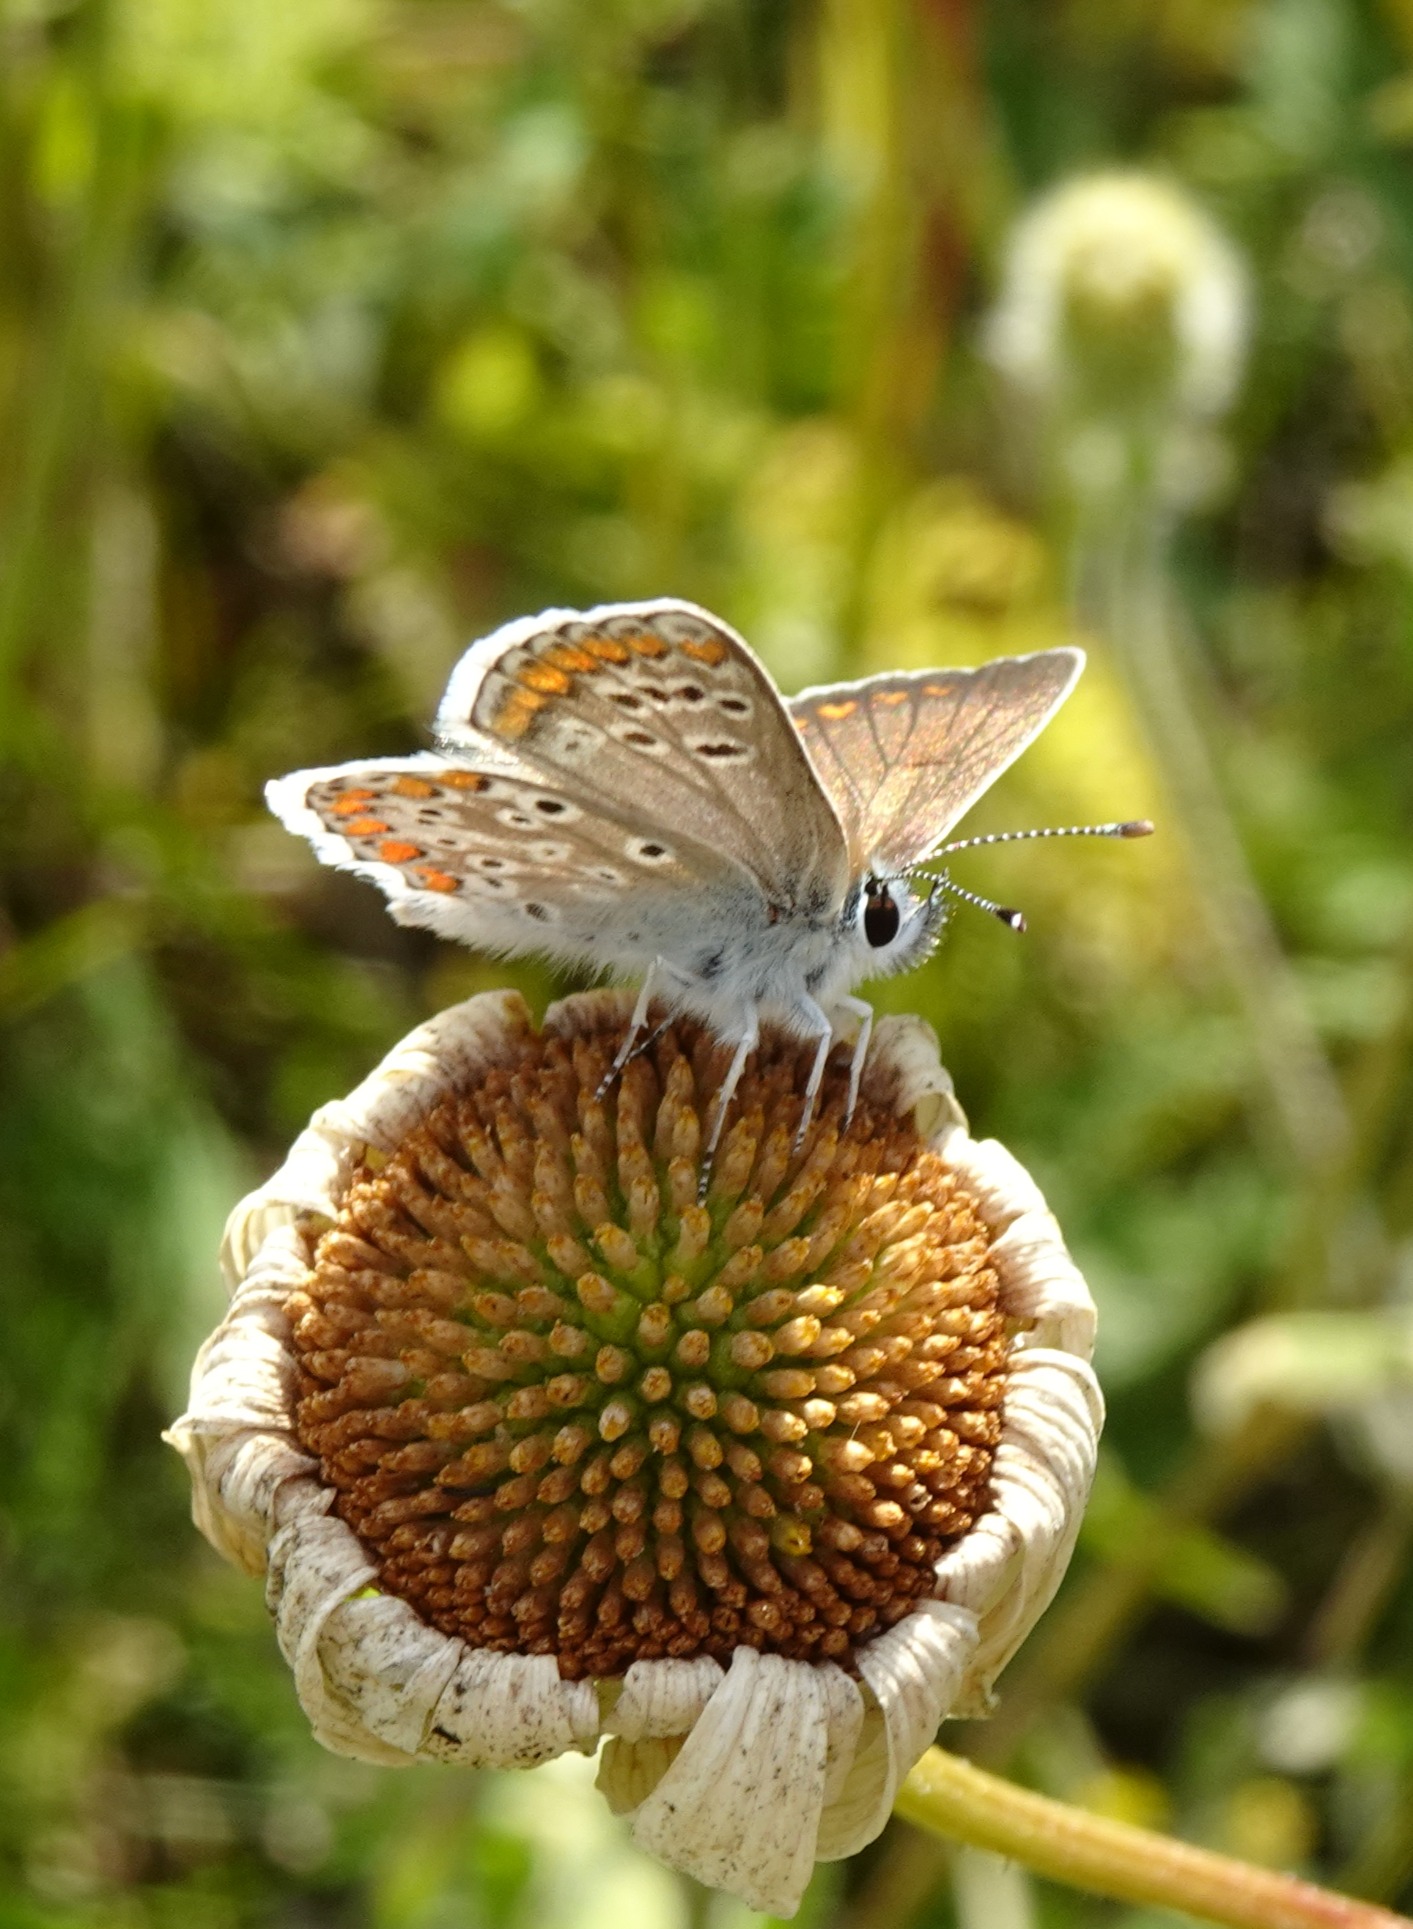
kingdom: Animalia
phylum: Arthropoda
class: Insecta
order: Lepidoptera
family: Lycaenidae
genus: Aricia
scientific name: Aricia agestis
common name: Rødplettet blåfugl
